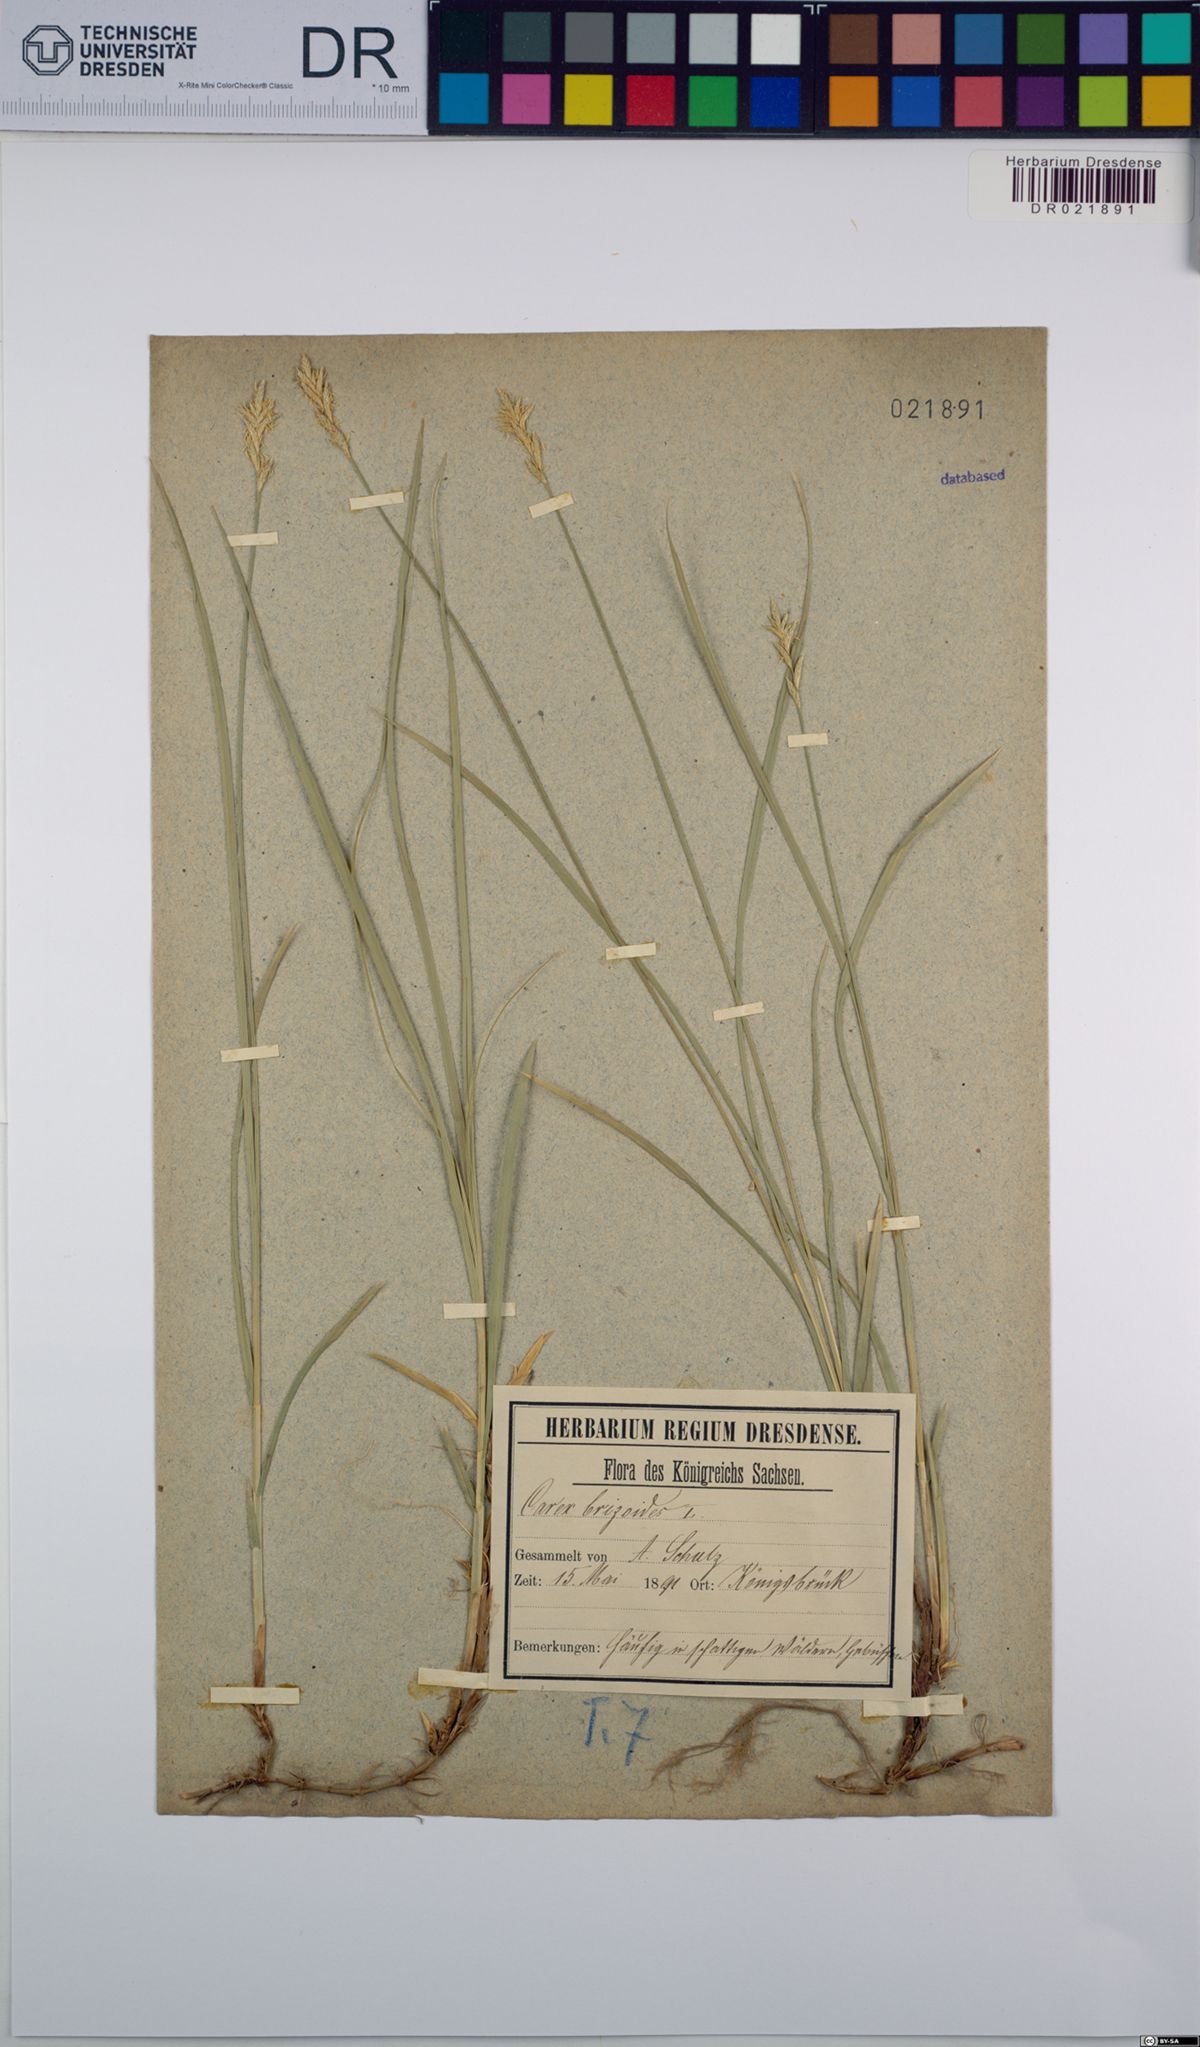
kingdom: Plantae
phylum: Tracheophyta
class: Liliopsida
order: Poales
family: Cyperaceae
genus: Carex
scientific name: Carex brizoides
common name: Quaking-grass sedge
